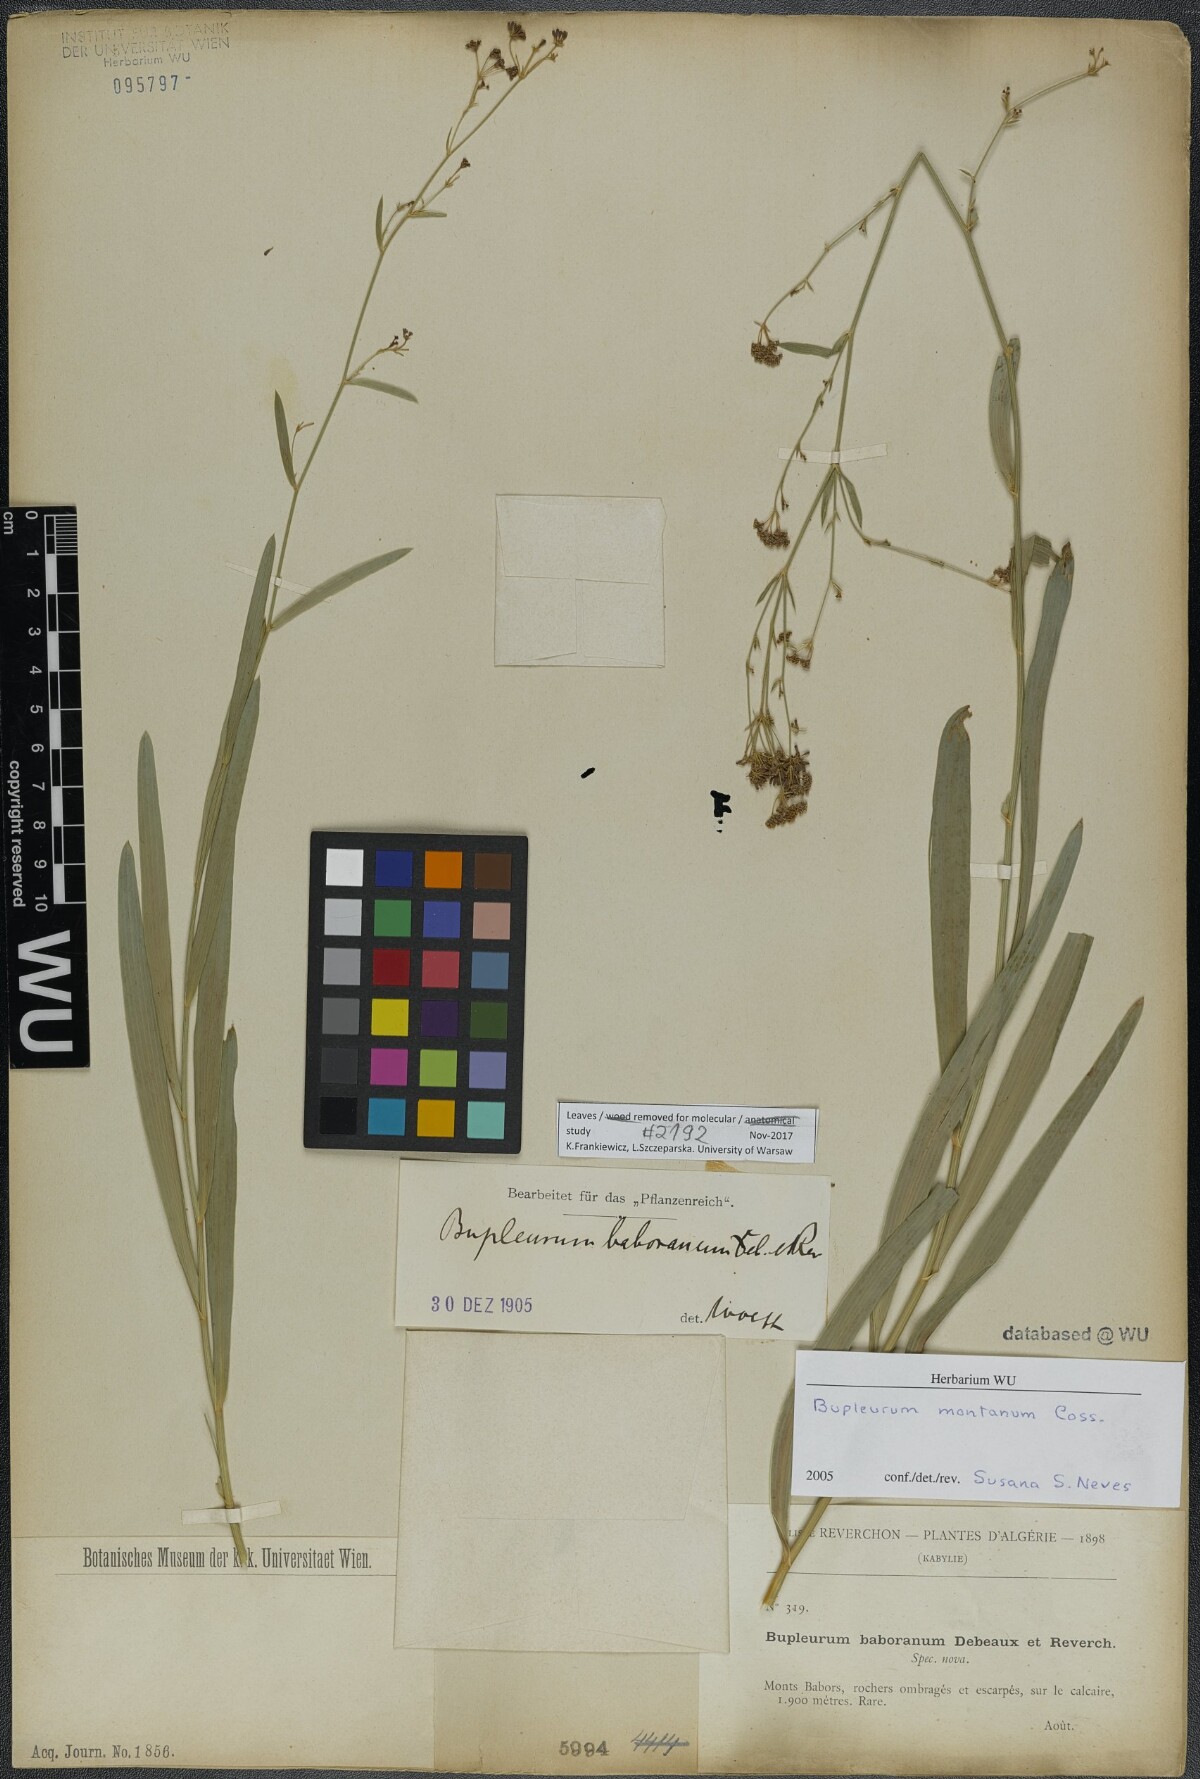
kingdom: Plantae
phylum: Tracheophyta
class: Magnoliopsida
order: Apiales
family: Apiaceae
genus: Bupleurum
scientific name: Bupleurum montanum
